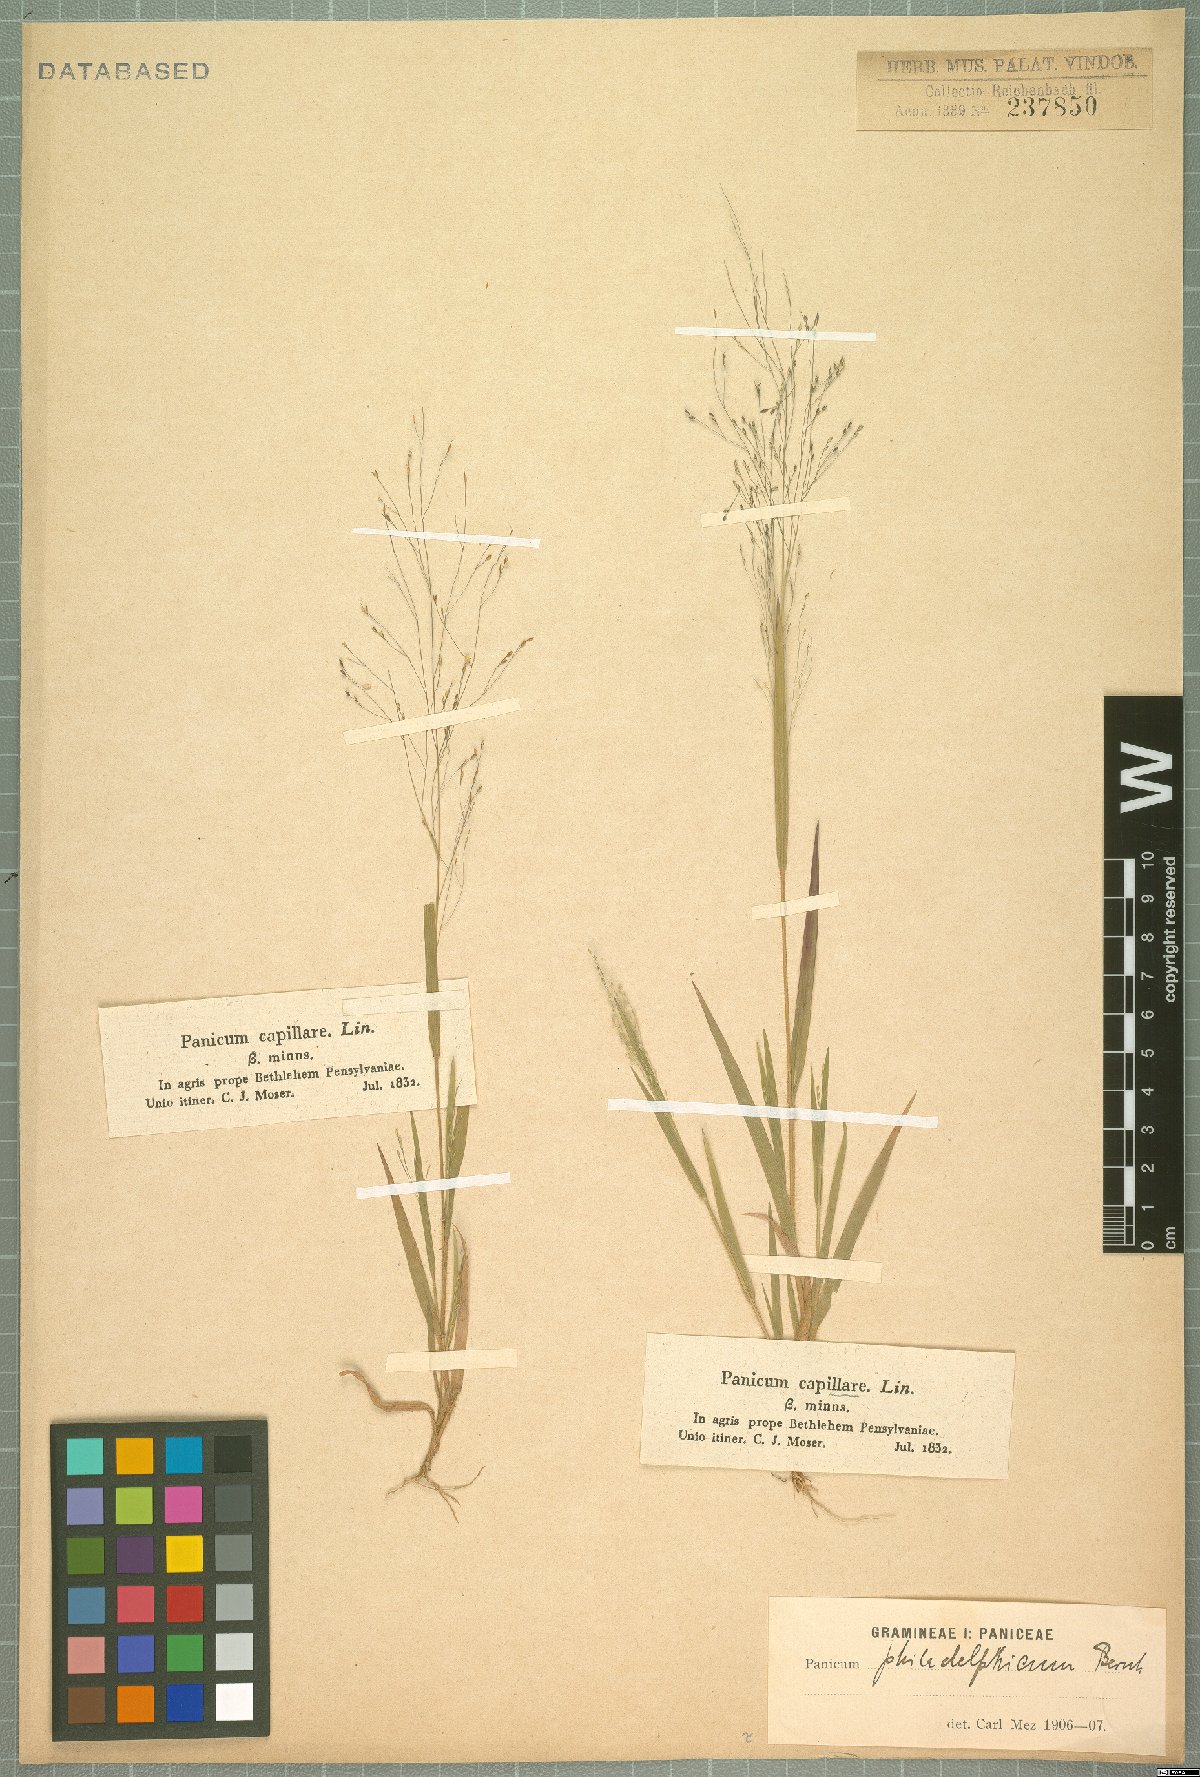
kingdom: Plantae
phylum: Tracheophyta
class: Liliopsida
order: Poales
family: Poaceae
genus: Panicum
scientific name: Panicum philadelphicum
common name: Philadelphia witchgrass
